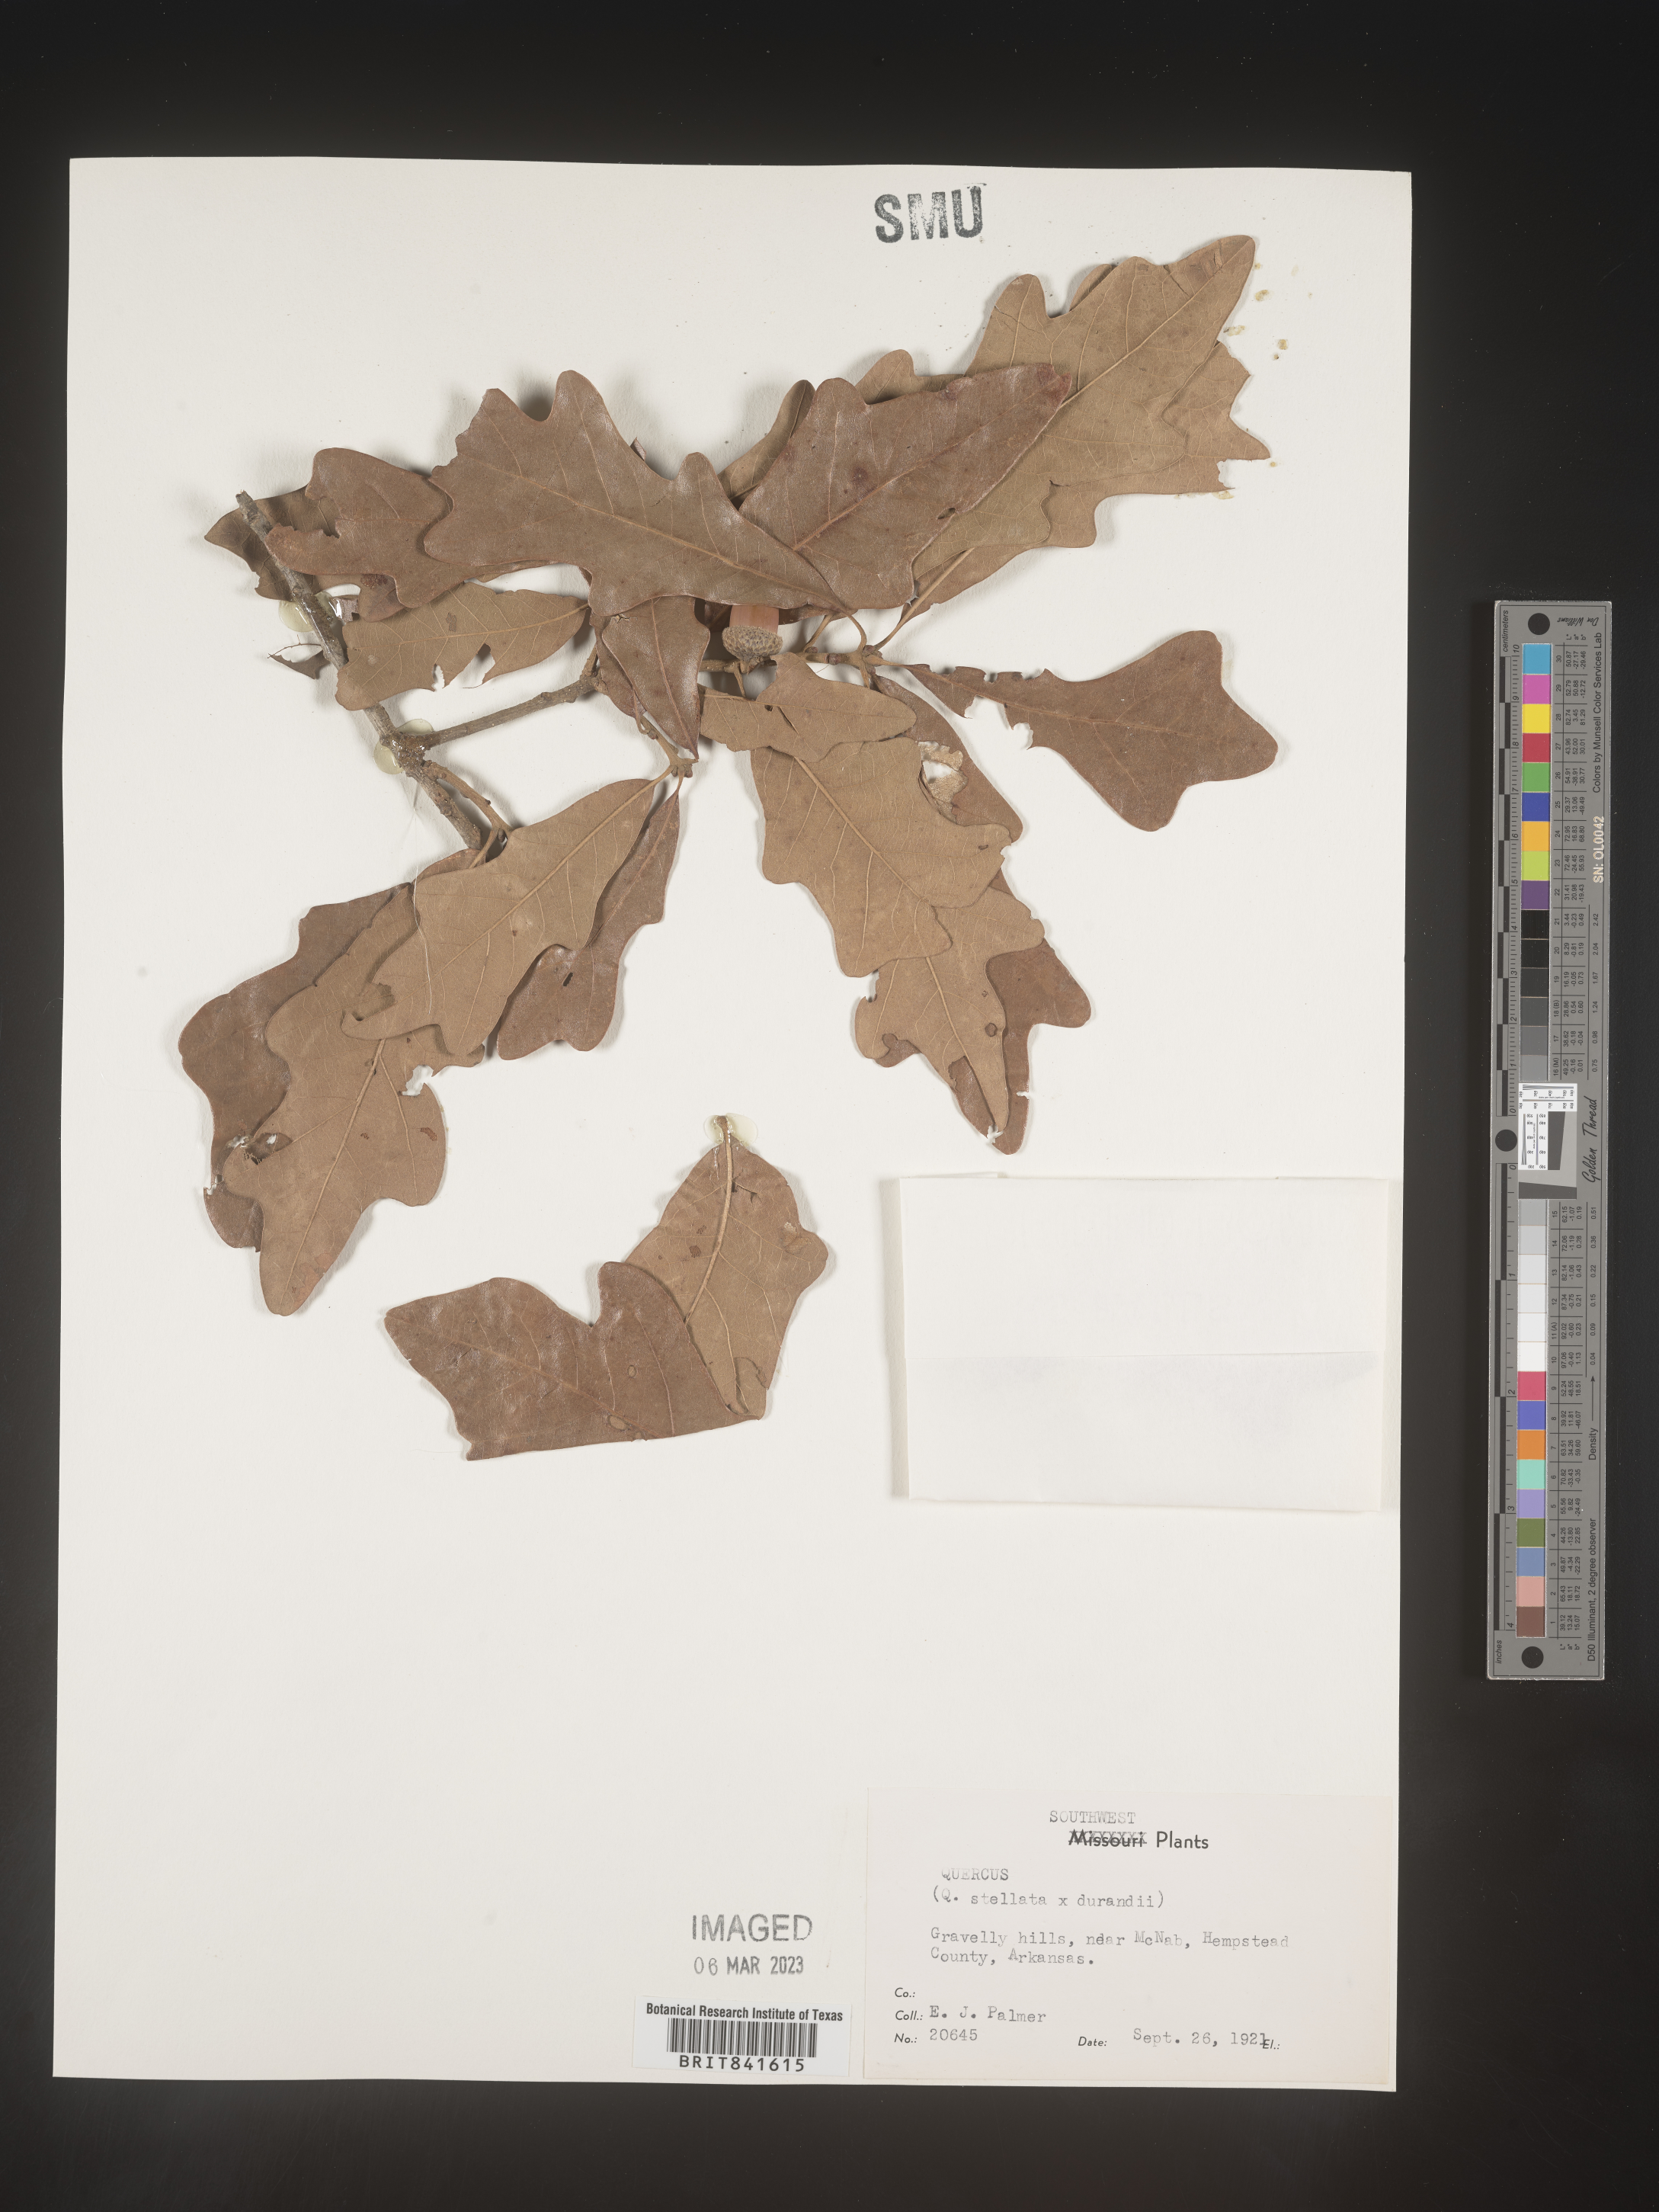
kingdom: Plantae
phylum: Tracheophyta
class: Magnoliopsida
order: Fagales
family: Fagaceae
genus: Quercus
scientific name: Quercus stellata
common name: Post oak
